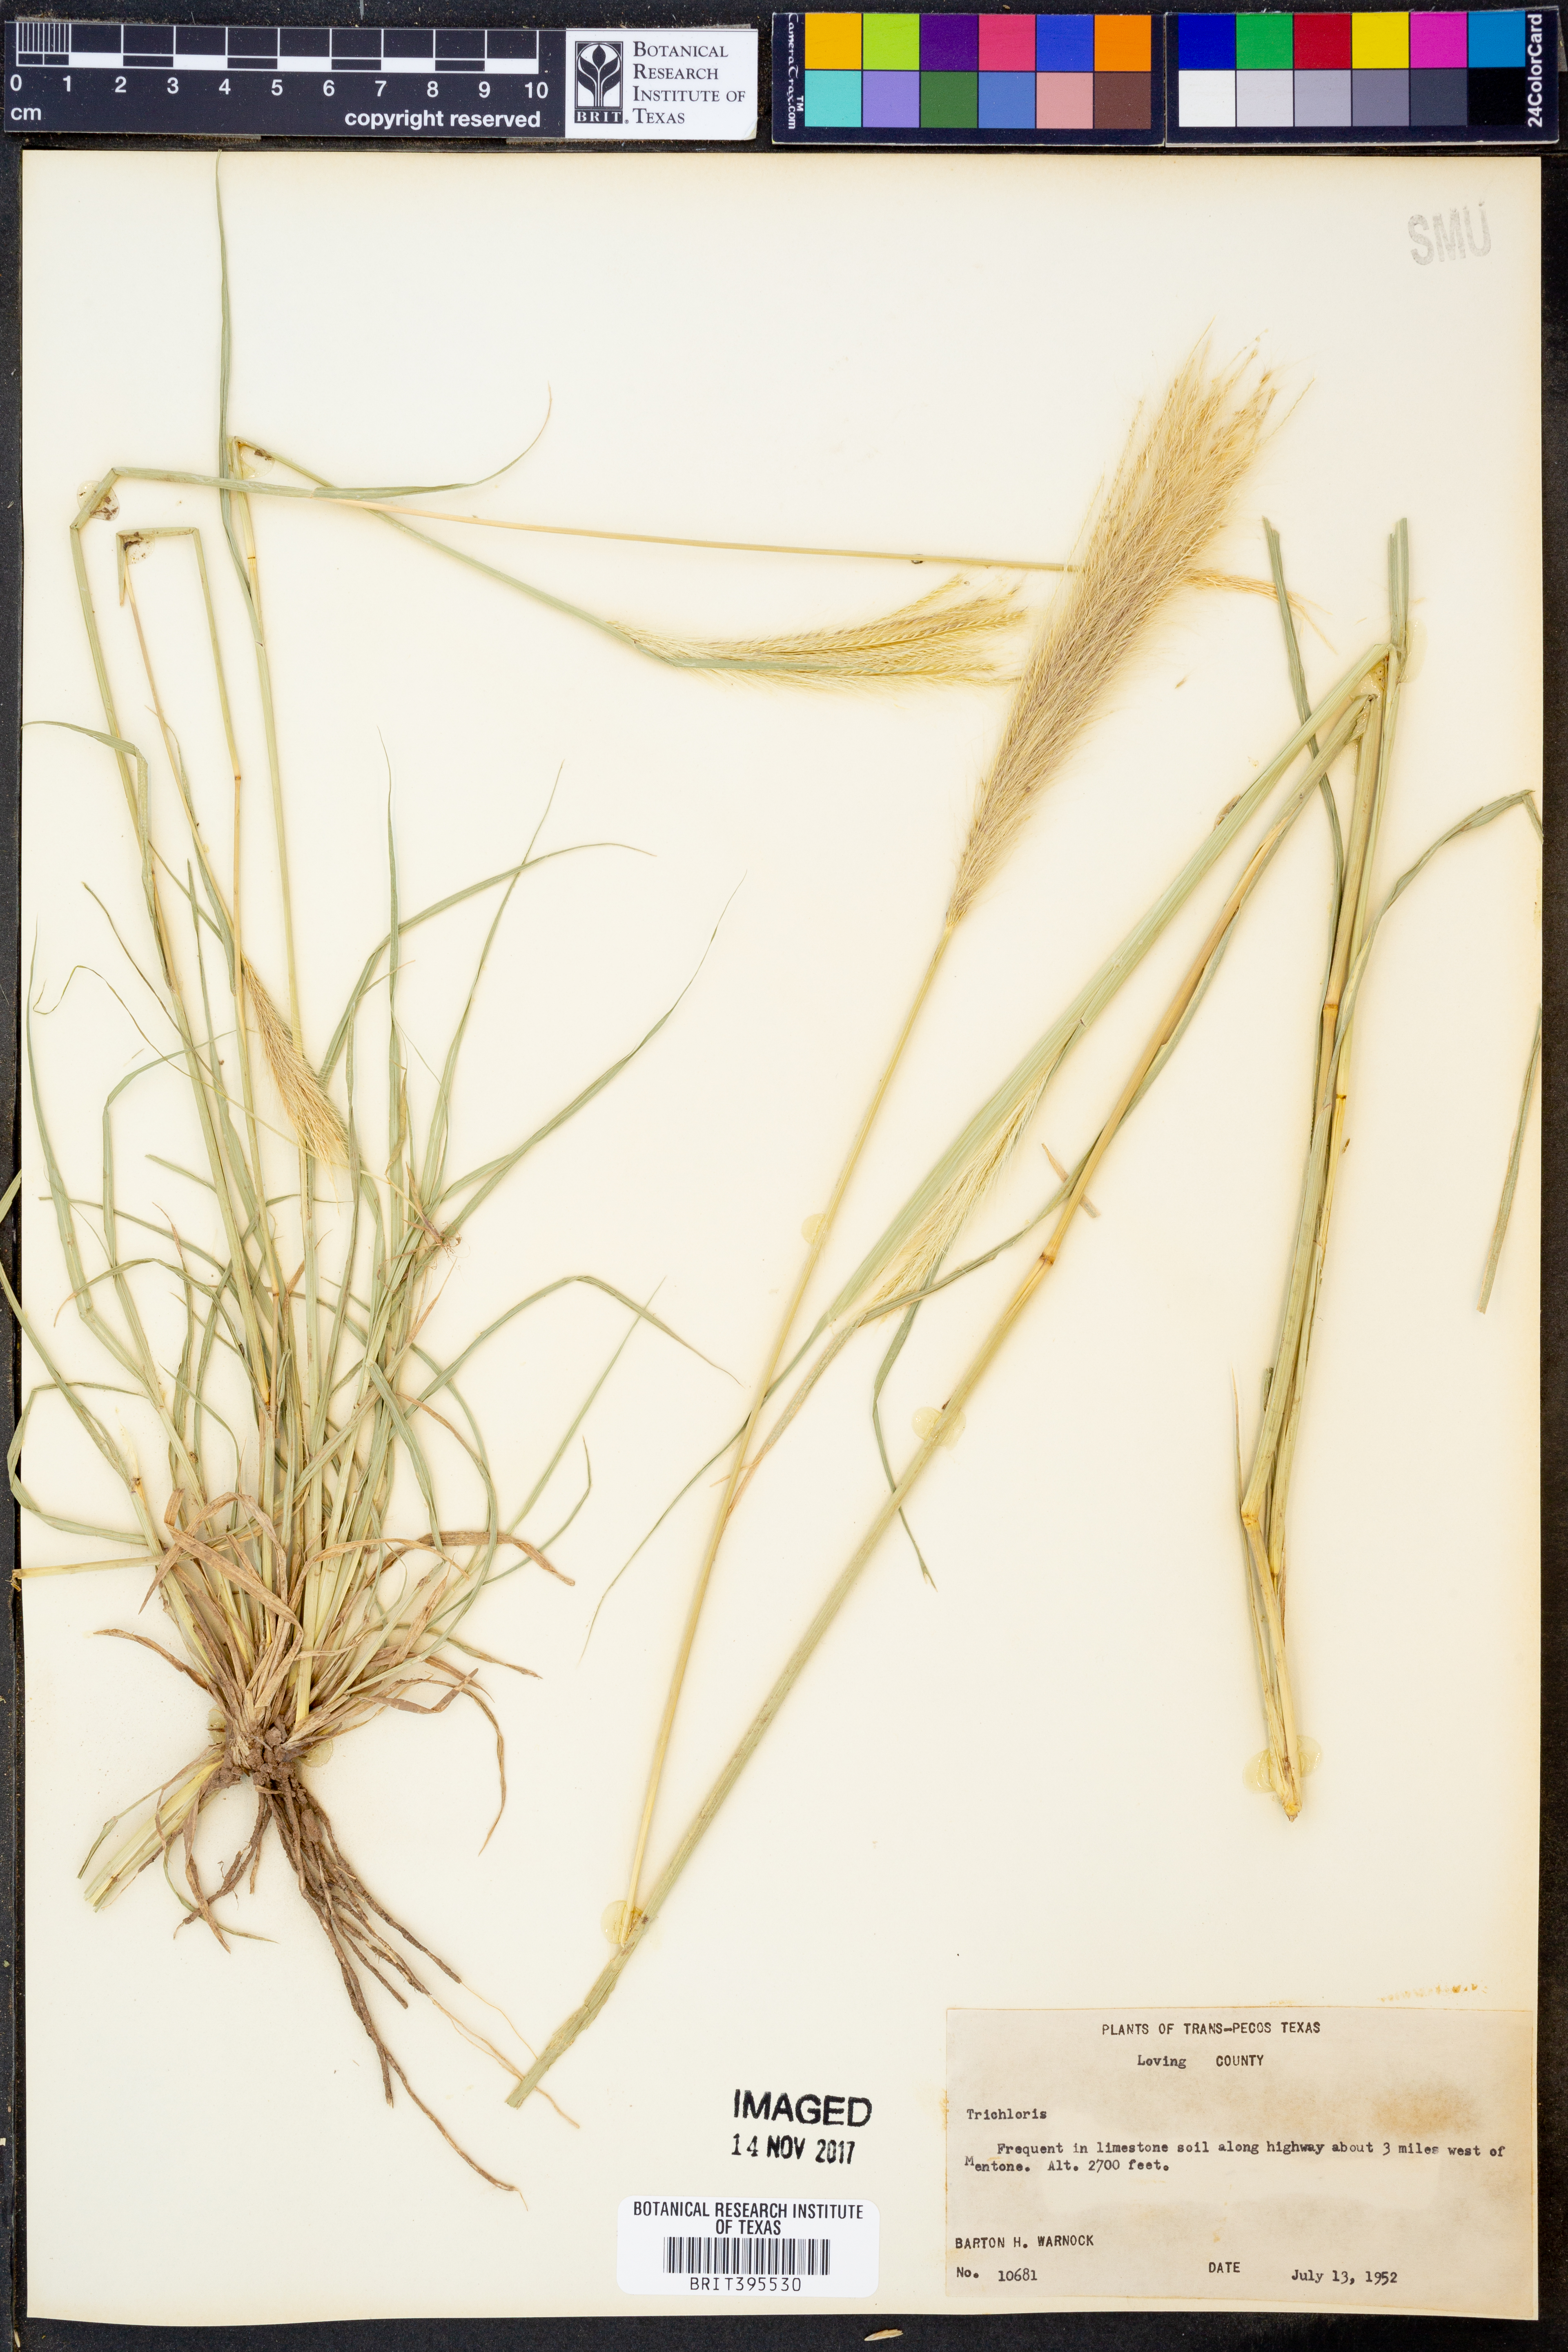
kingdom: Plantae
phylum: Tracheophyta
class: Liliopsida
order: Poales
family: Poaceae
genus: Trichloris
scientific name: Trichloris
